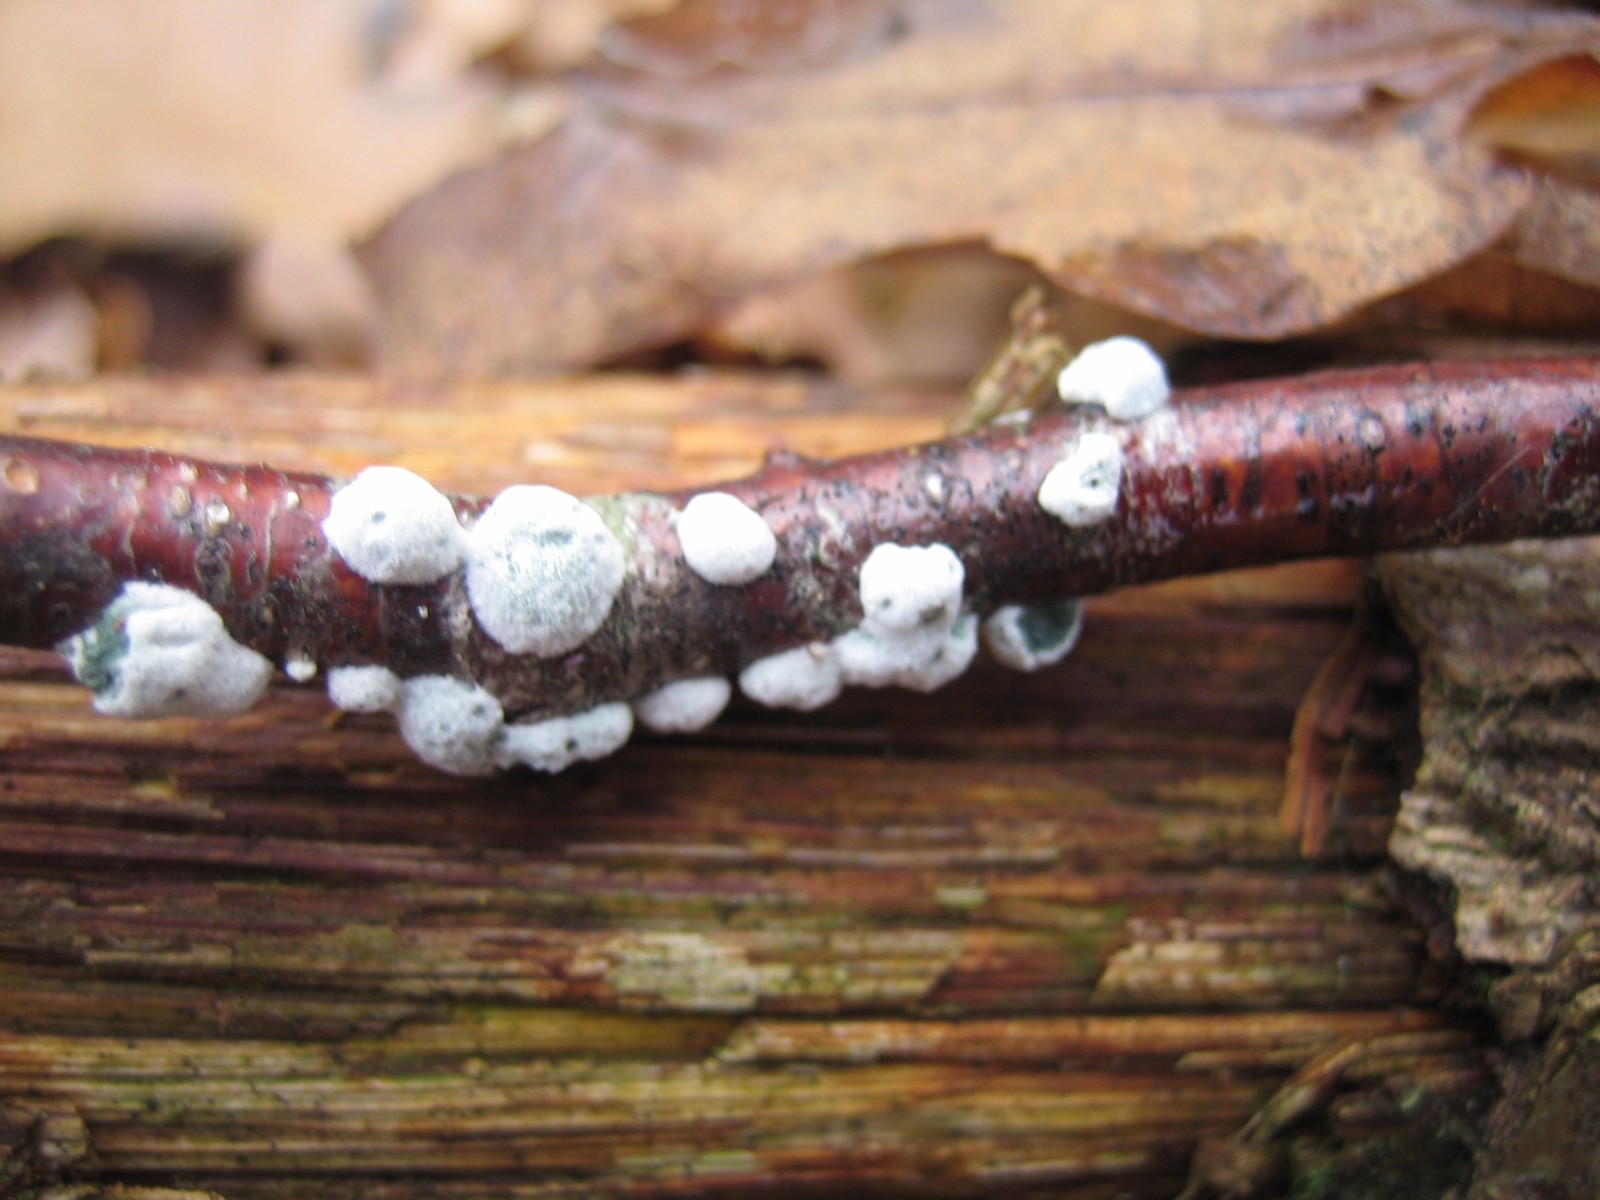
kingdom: Fungi
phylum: Ascomycota
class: Sordariomycetes
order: Hypocreales
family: Hypocreaceae
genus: Trichoderma
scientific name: Trichoderma
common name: kødkerne
